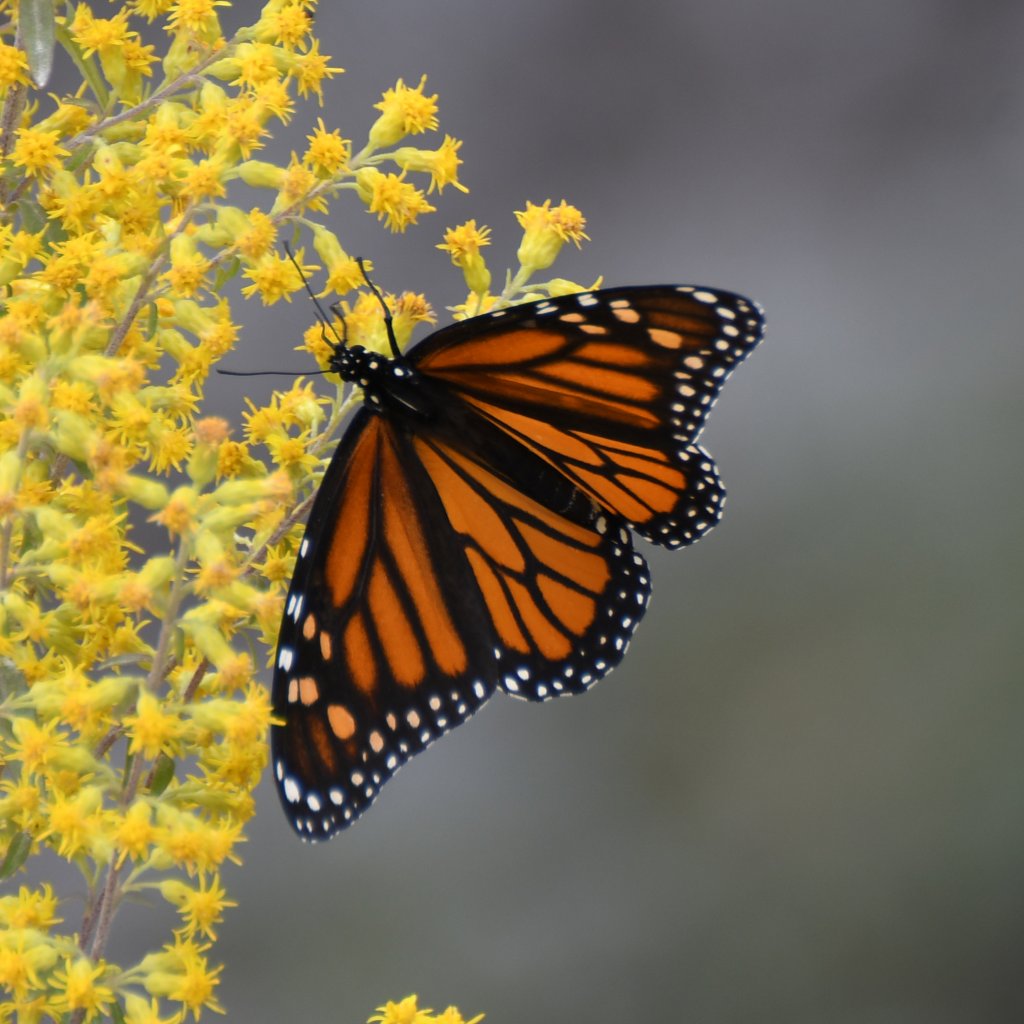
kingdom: Animalia
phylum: Arthropoda
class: Insecta
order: Lepidoptera
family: Nymphalidae
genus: Danaus
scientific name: Danaus plexippus
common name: Monarch
